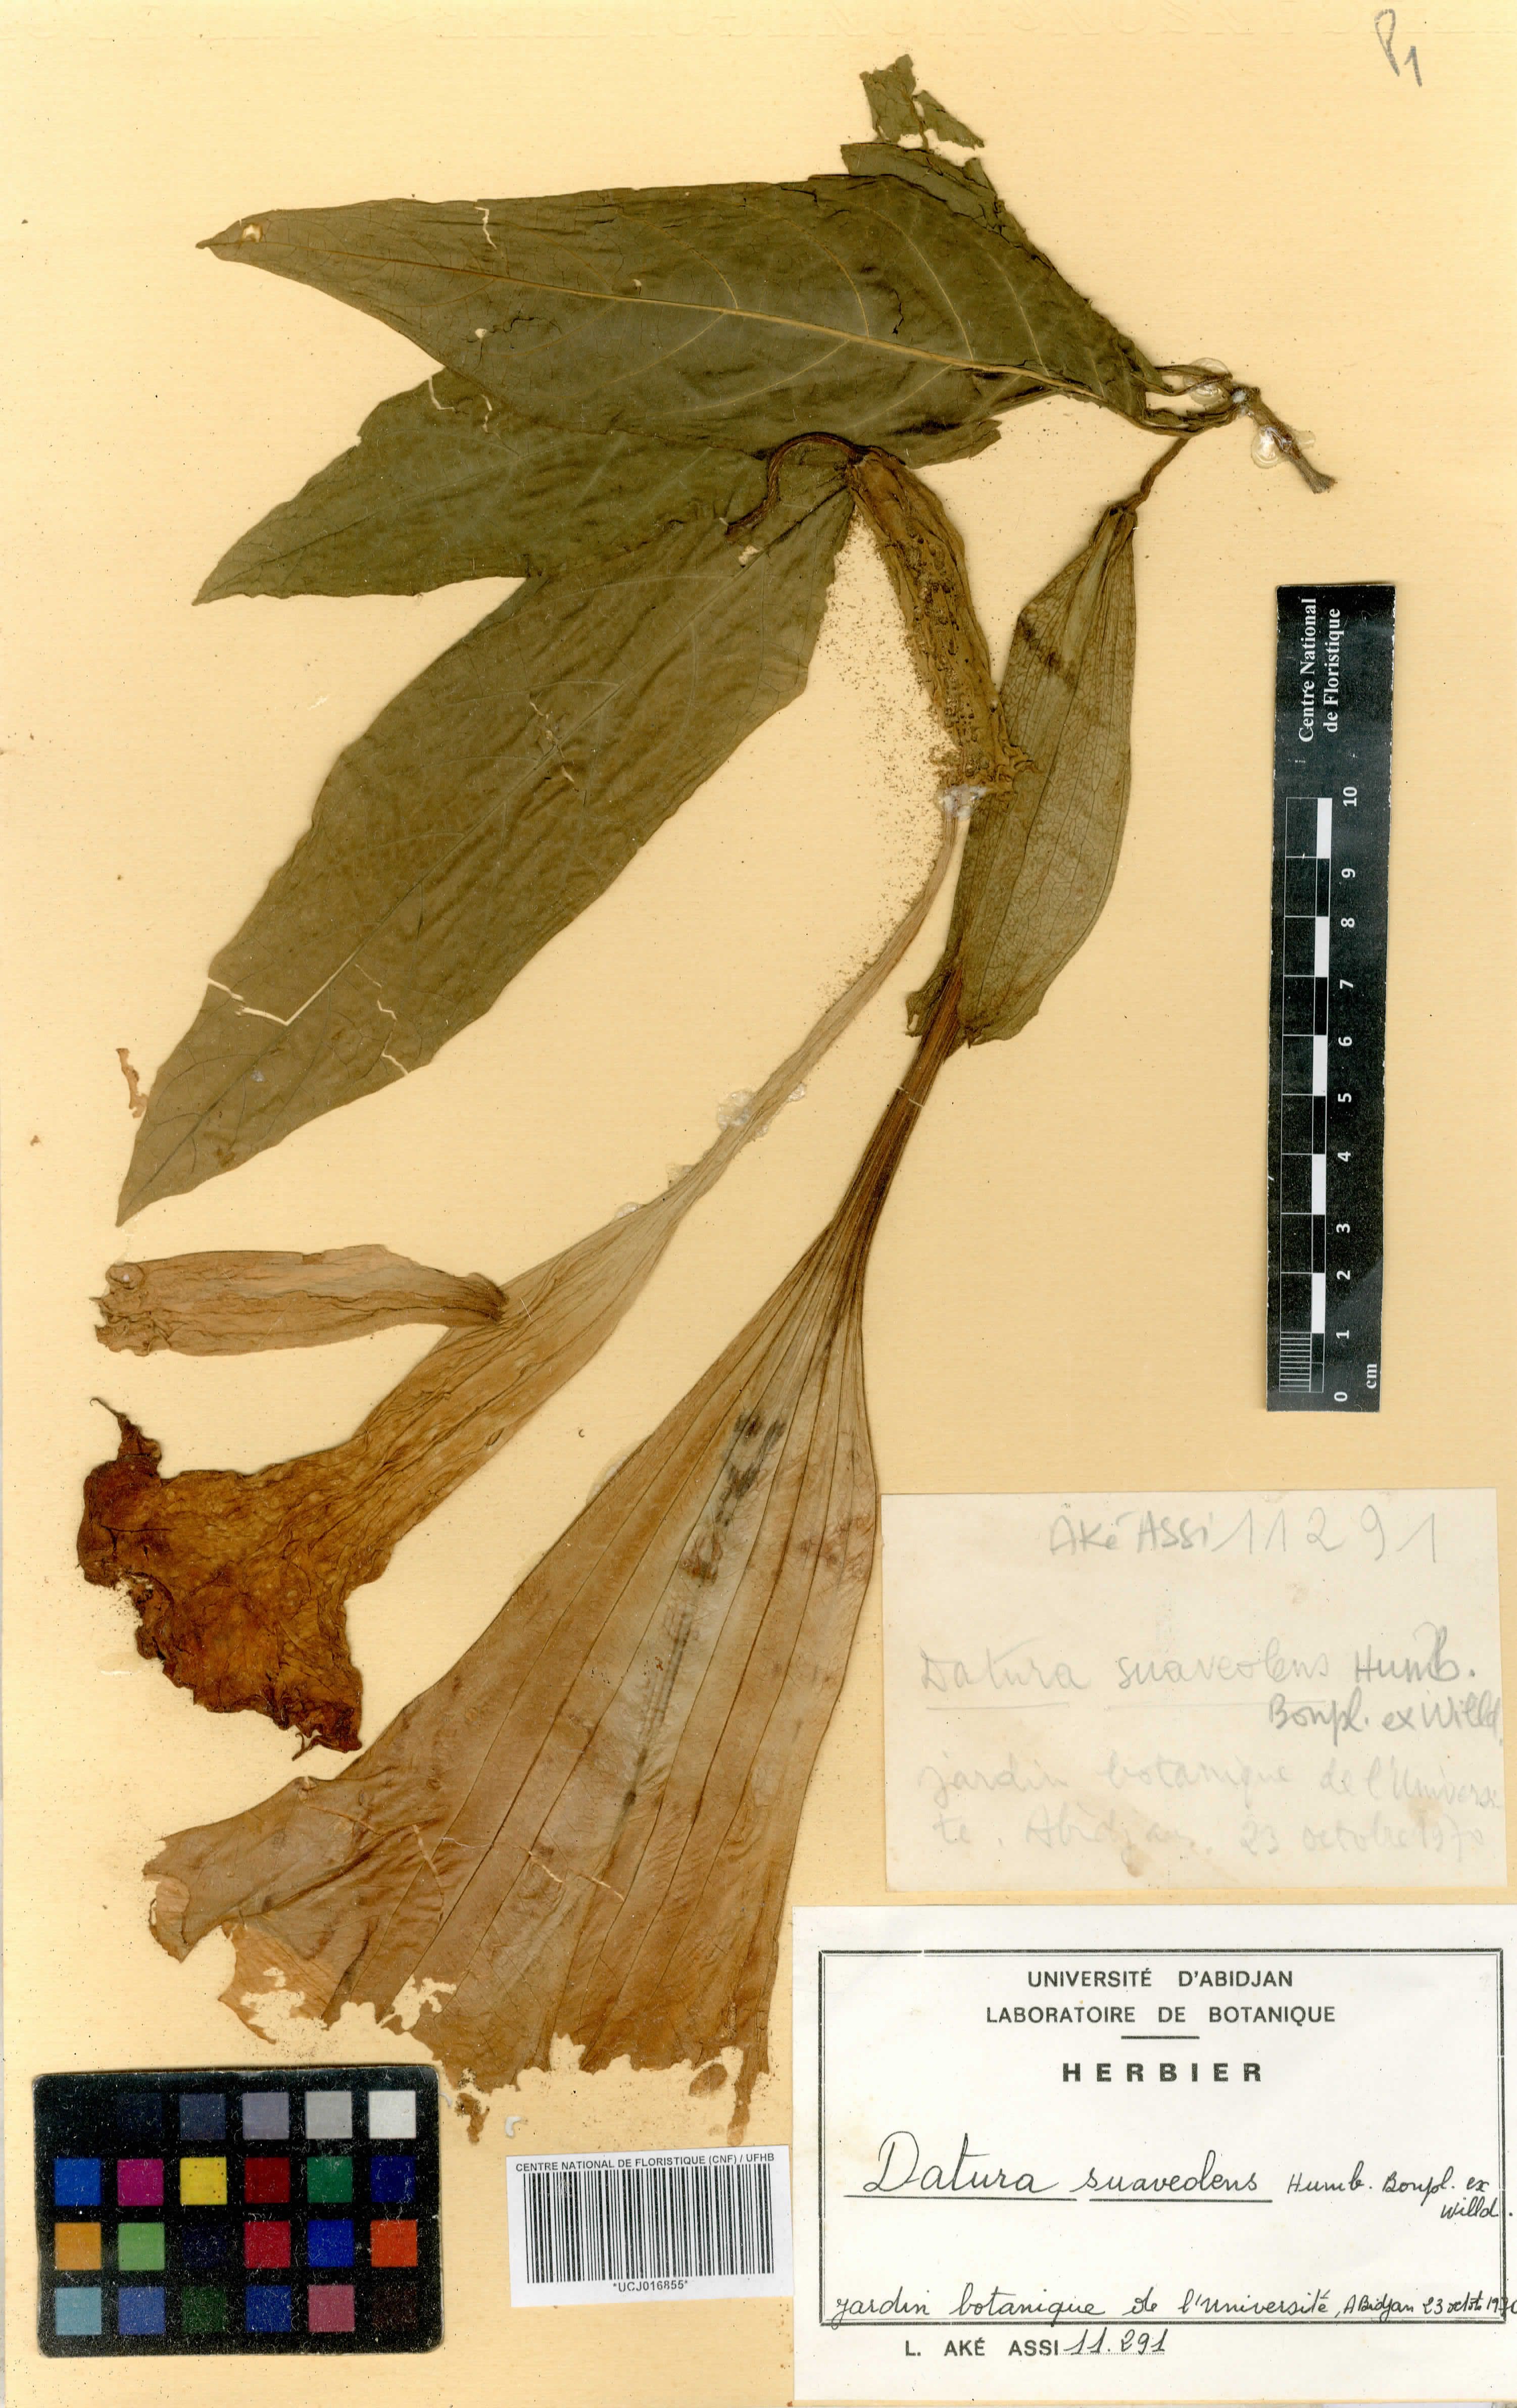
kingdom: Plantae
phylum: Tracheophyta
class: Magnoliopsida
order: Solanales
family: Solanaceae
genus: Brugmansia
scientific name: Brugmansia suaveolens
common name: Angel's tears
